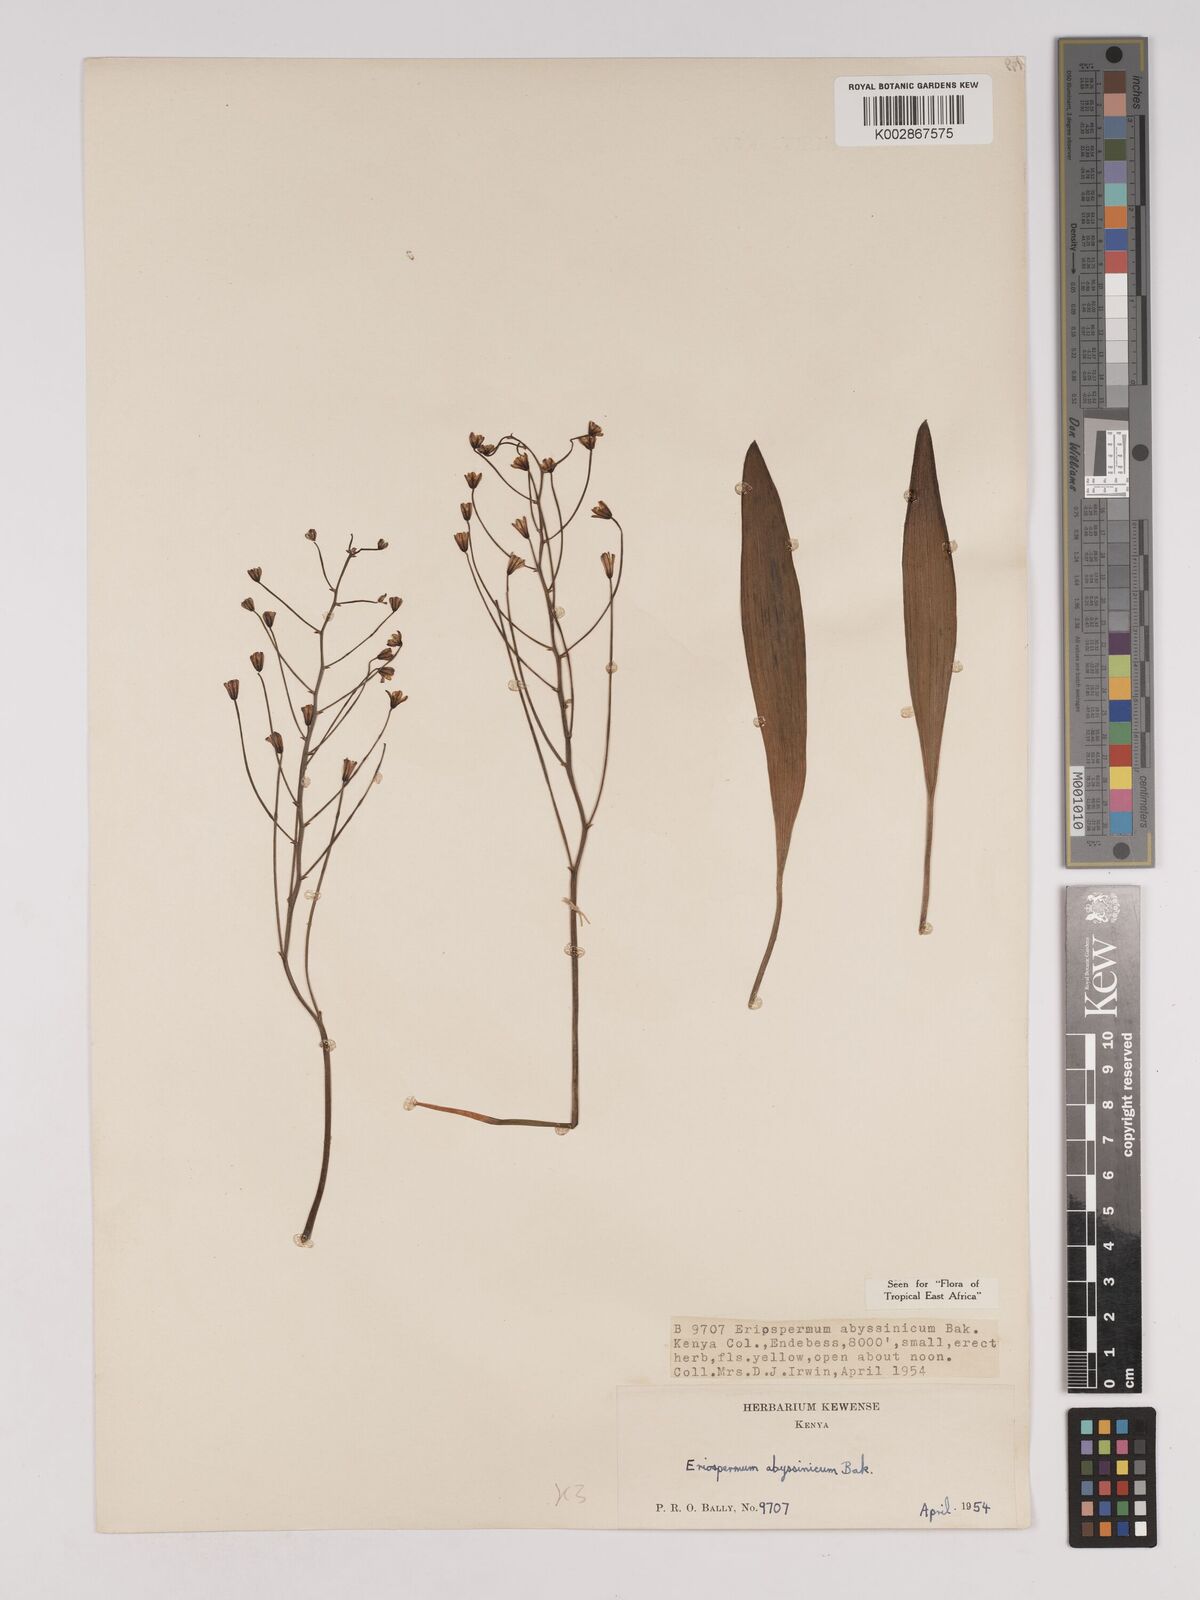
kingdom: Plantae
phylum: Tracheophyta
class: Liliopsida
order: Asparagales
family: Asparagaceae
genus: Eriospermum
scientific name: Eriospermum abyssinicum
